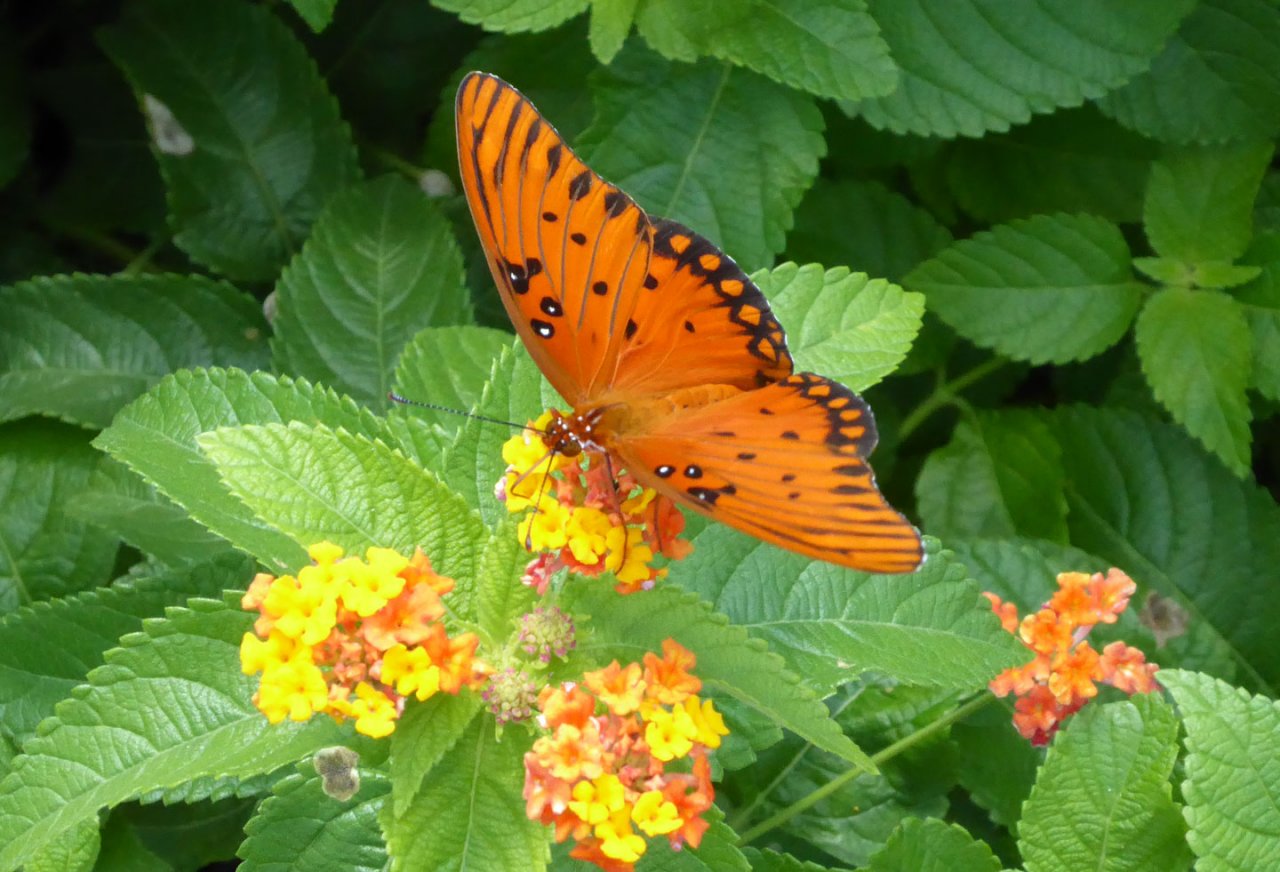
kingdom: Animalia
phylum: Arthropoda
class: Insecta
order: Lepidoptera
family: Nymphalidae
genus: Dione
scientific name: Dione vanillae
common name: Gulf Fritillary
